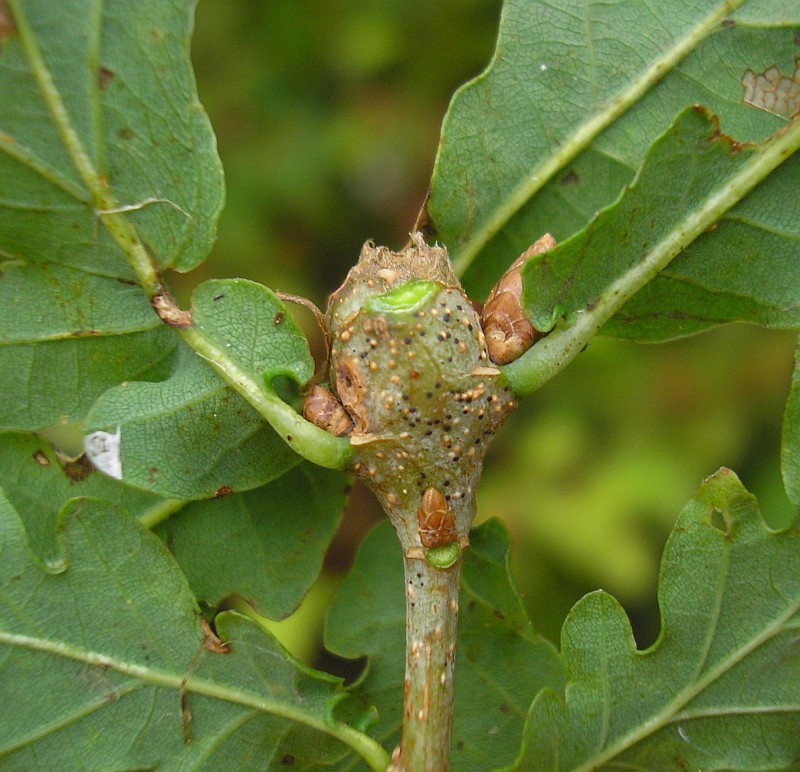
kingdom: Animalia
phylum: Arthropoda
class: Insecta
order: Hymenoptera
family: Cynipidae
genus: Andricus
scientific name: Andricus inflator
